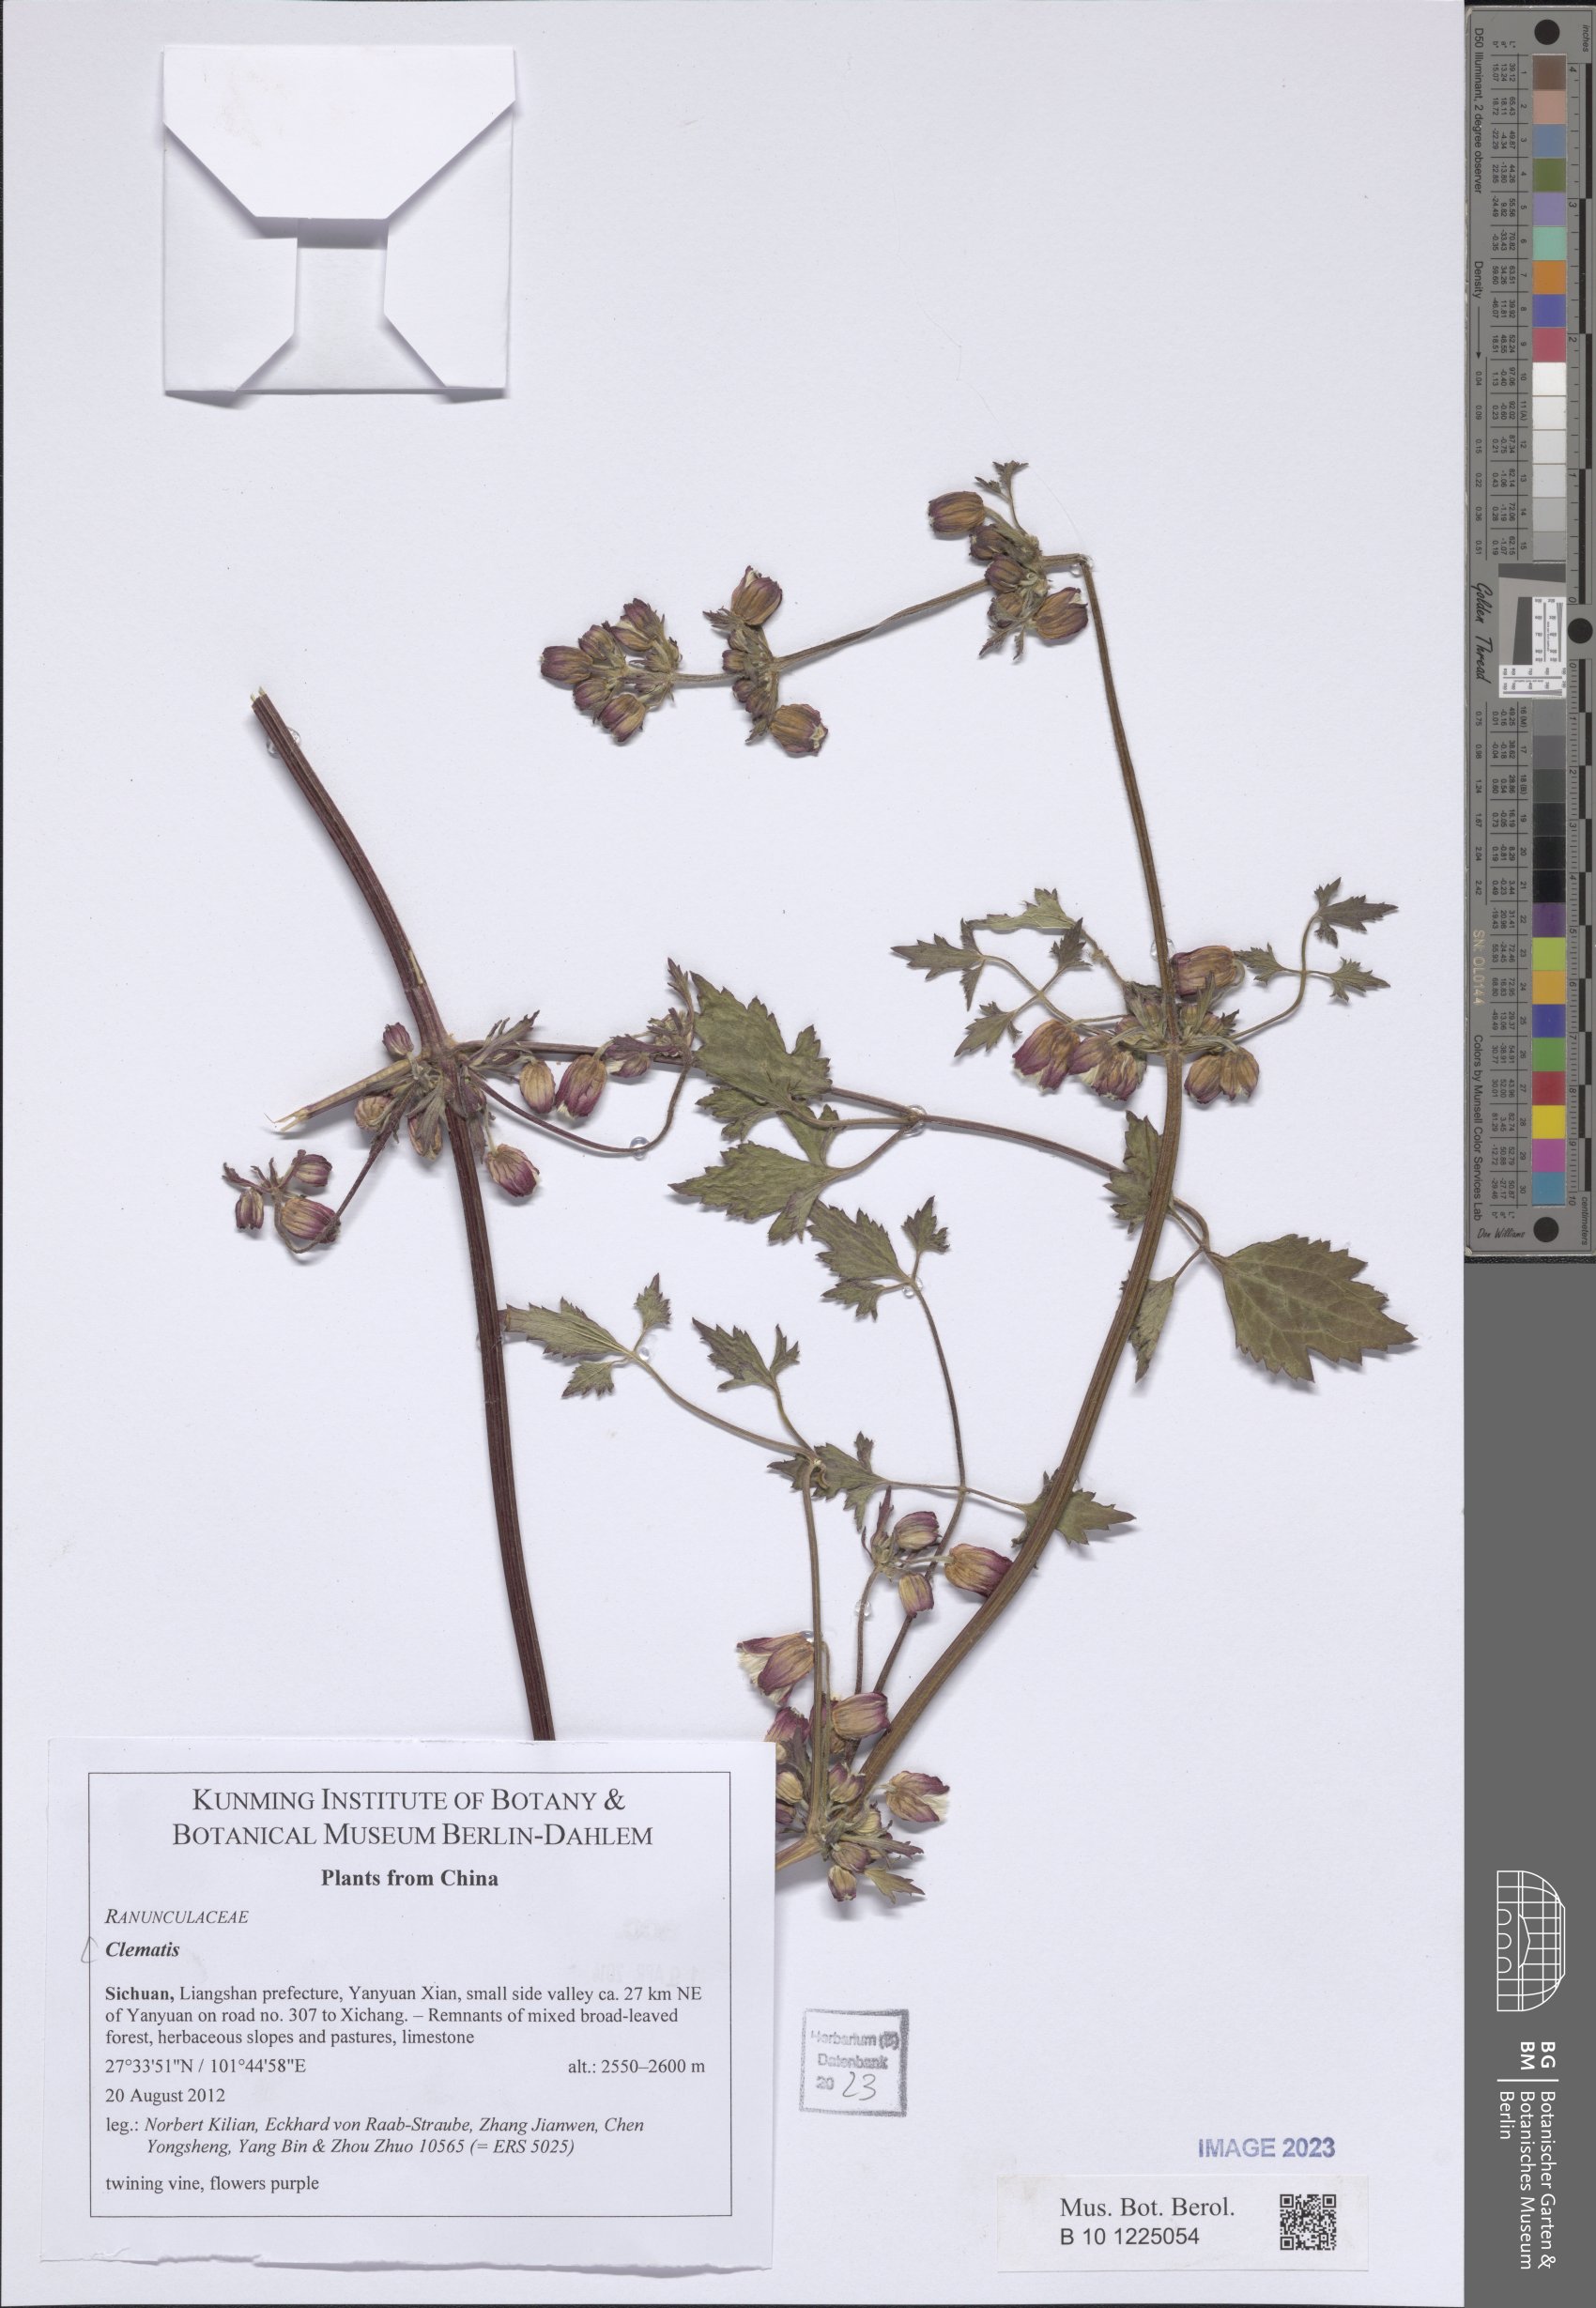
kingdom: Plantae
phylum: Tracheophyta
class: Magnoliopsida
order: Ranunculales
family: Ranunculaceae
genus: Clematis
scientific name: Clematis
